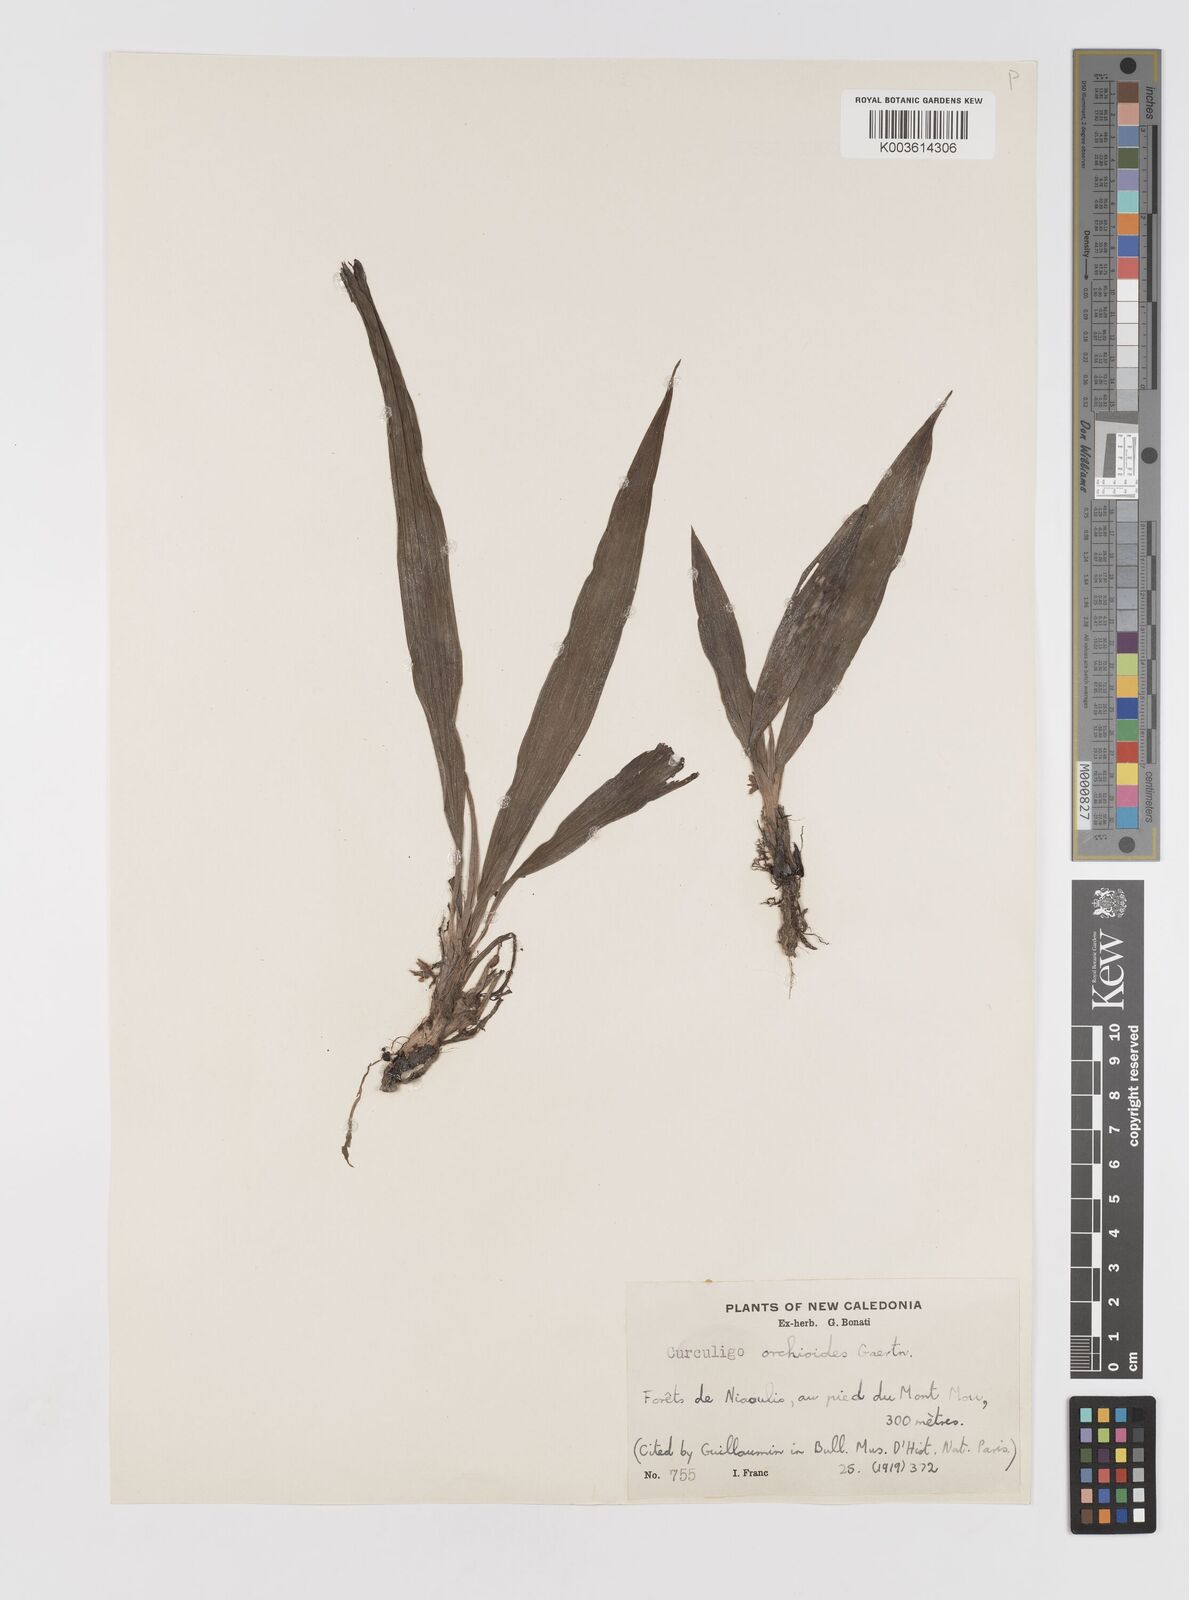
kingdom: Plantae
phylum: Tracheophyta
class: Liliopsida
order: Asparagales
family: Hypoxidaceae
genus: Curculigo
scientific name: Curculigo orchioides
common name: Golden eye-grass
